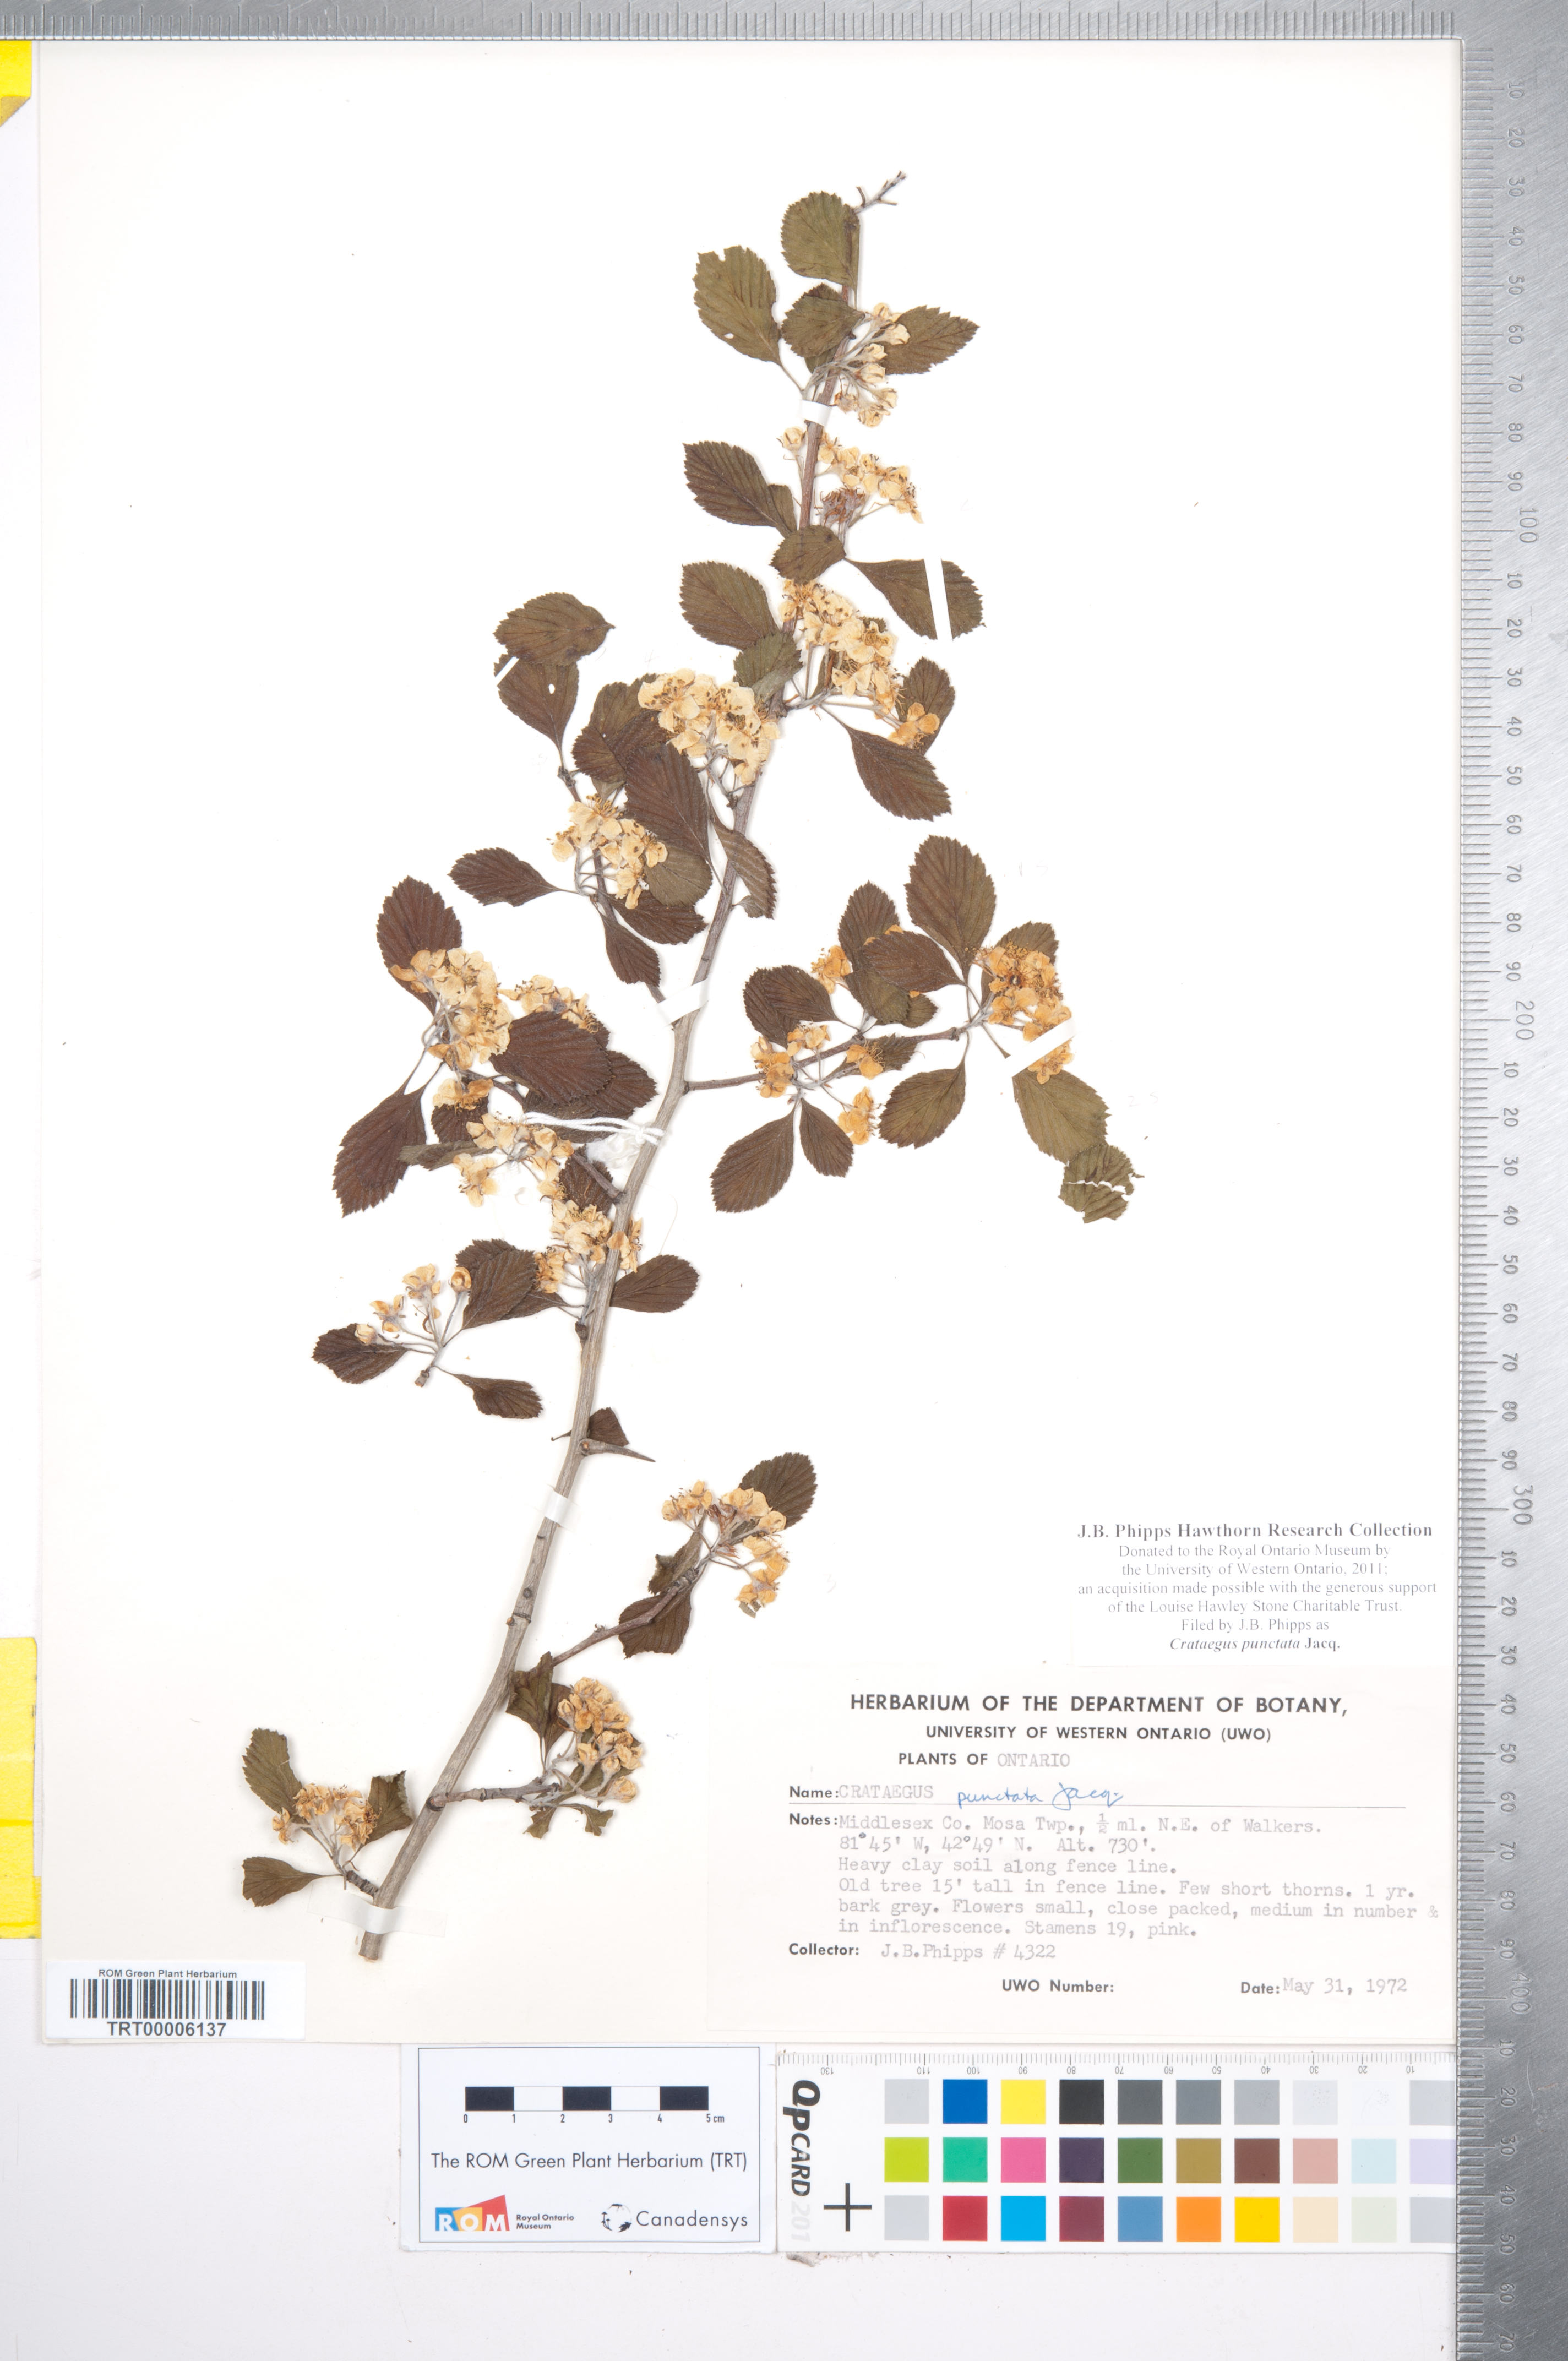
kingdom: Plantae
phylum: Tracheophyta
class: Magnoliopsida
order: Rosales
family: Rosaceae
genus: Crataegus
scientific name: Crataegus punctata
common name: Dotted hawthorn
